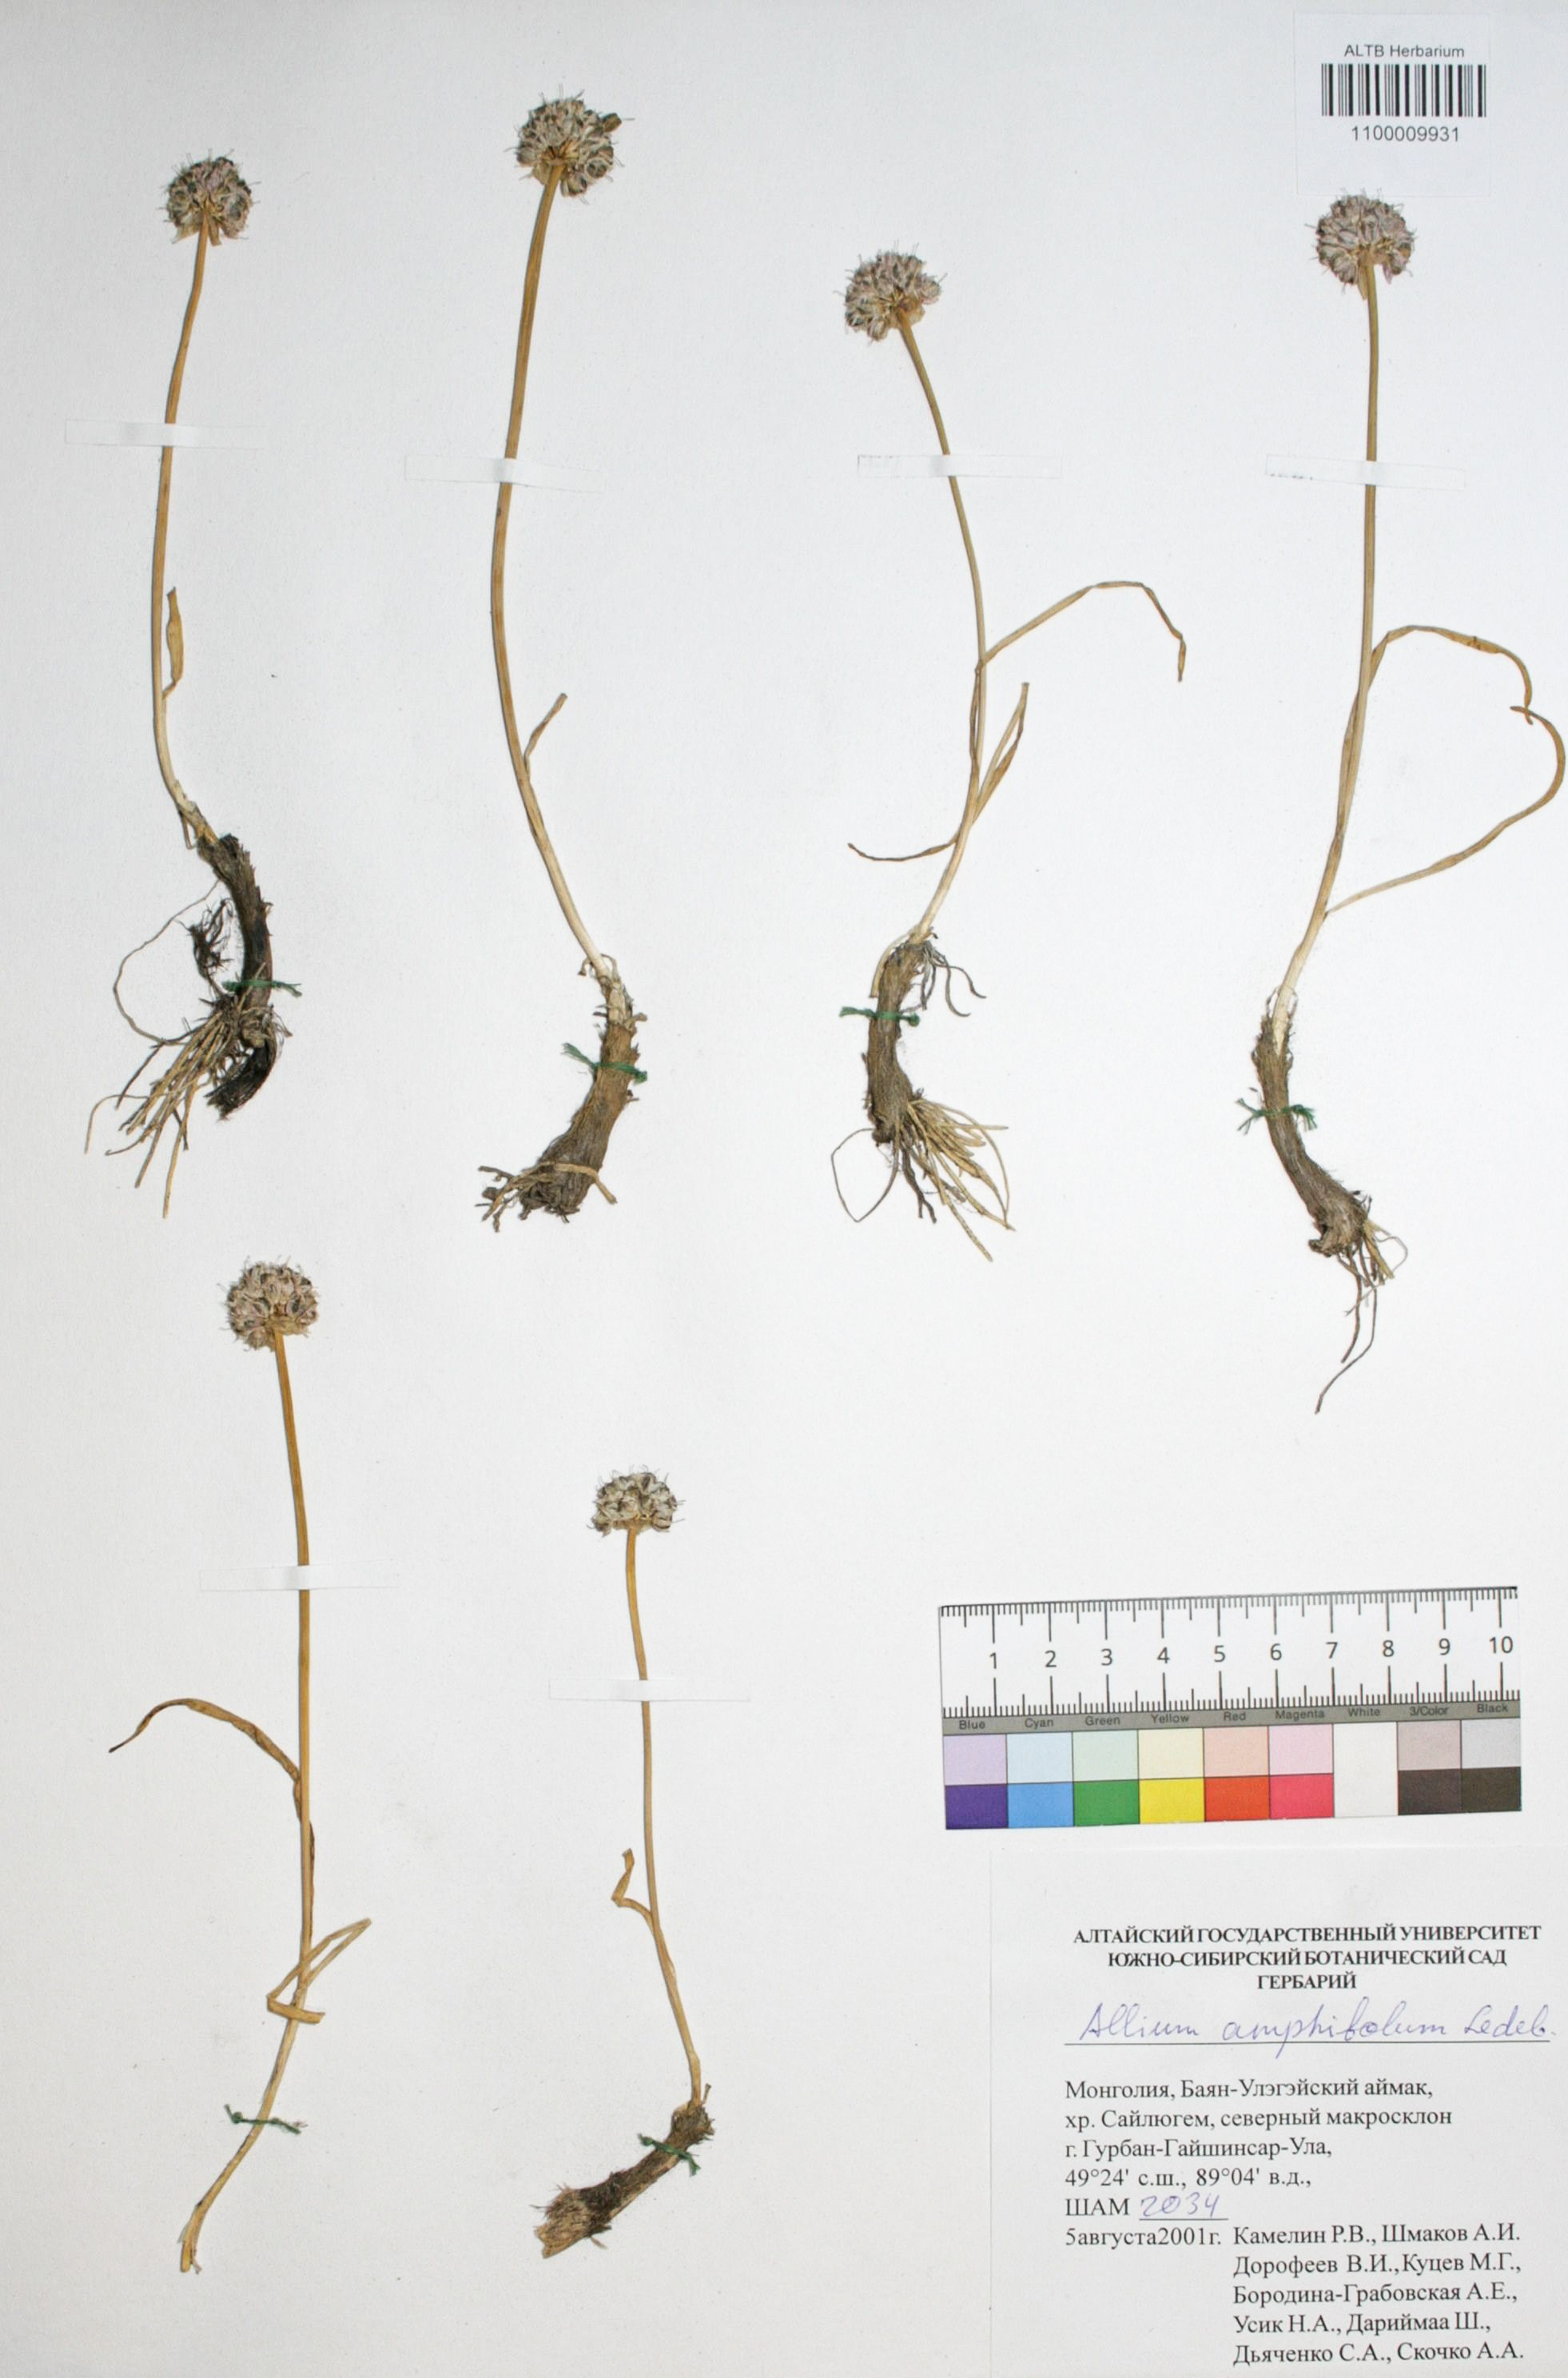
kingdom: Plantae
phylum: Tracheophyta
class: Liliopsida
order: Asparagales
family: Amaryllidaceae
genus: Allium
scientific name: Allium amphibolum
